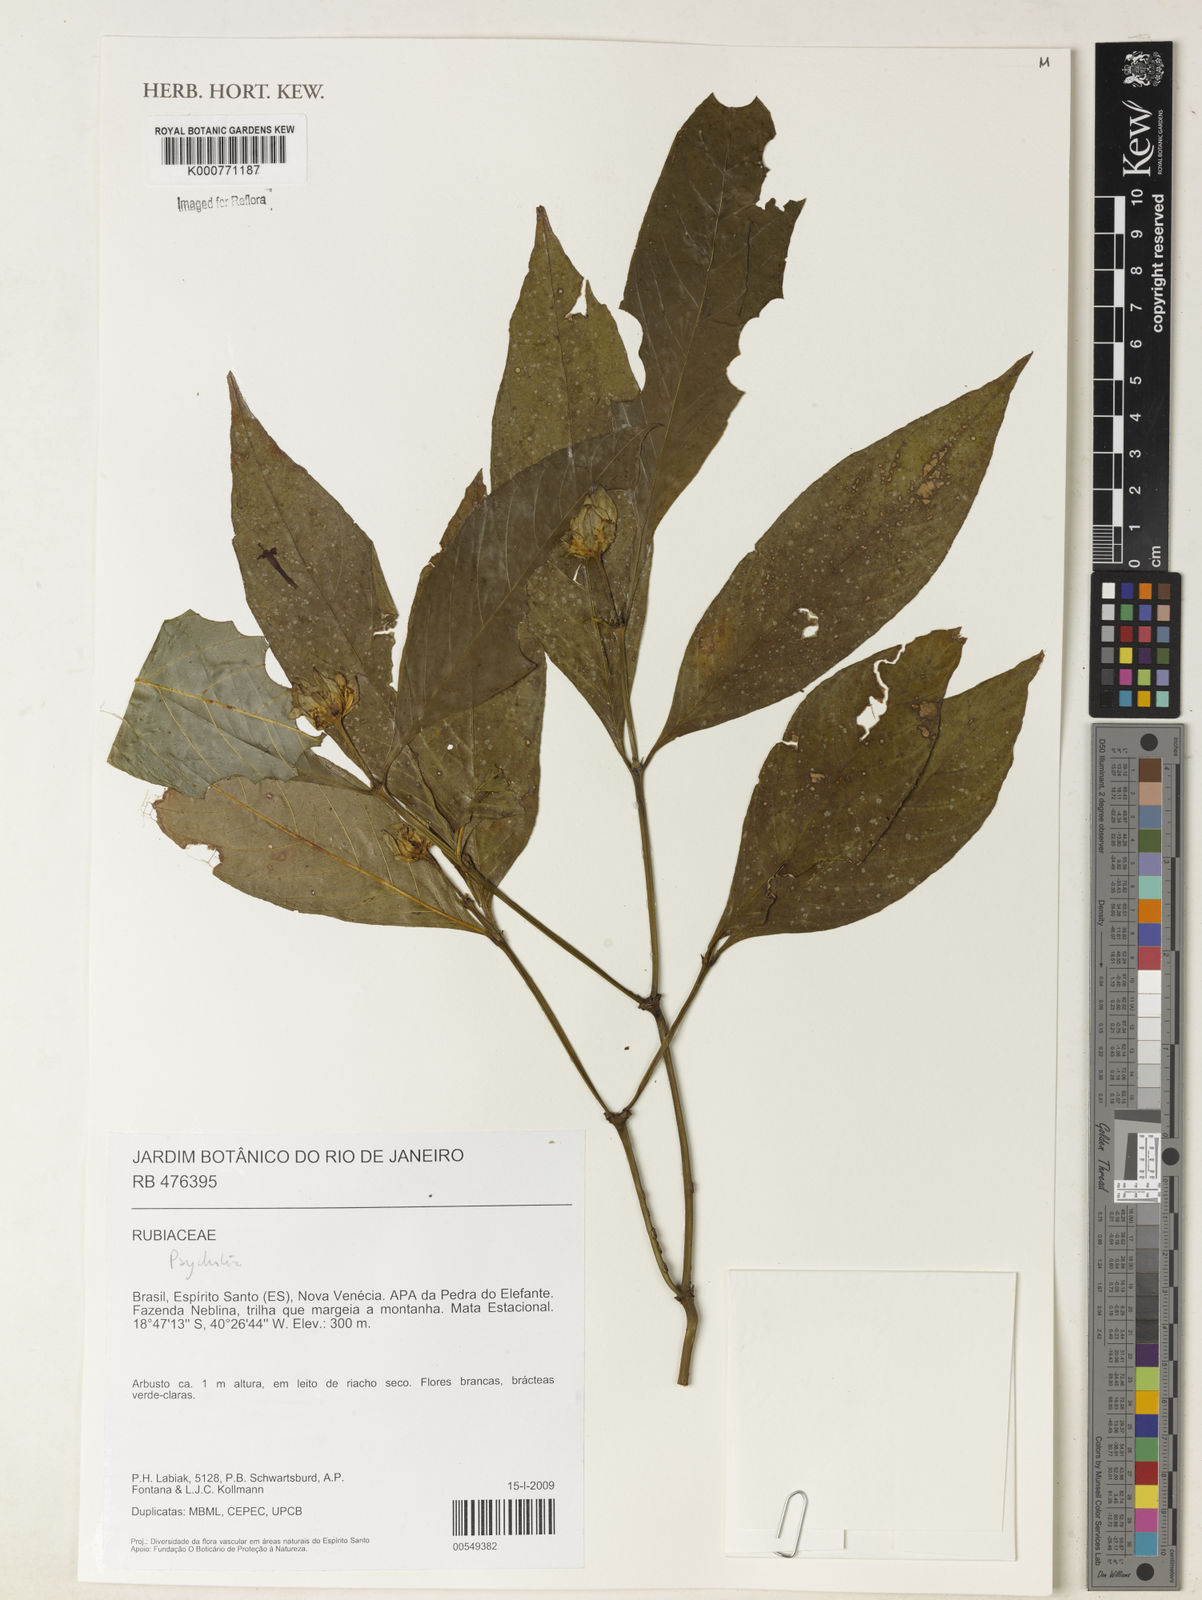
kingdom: Plantae
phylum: Tracheophyta
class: Magnoliopsida
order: Gentianales
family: Rubiaceae
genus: Psychotria
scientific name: Psychotria
